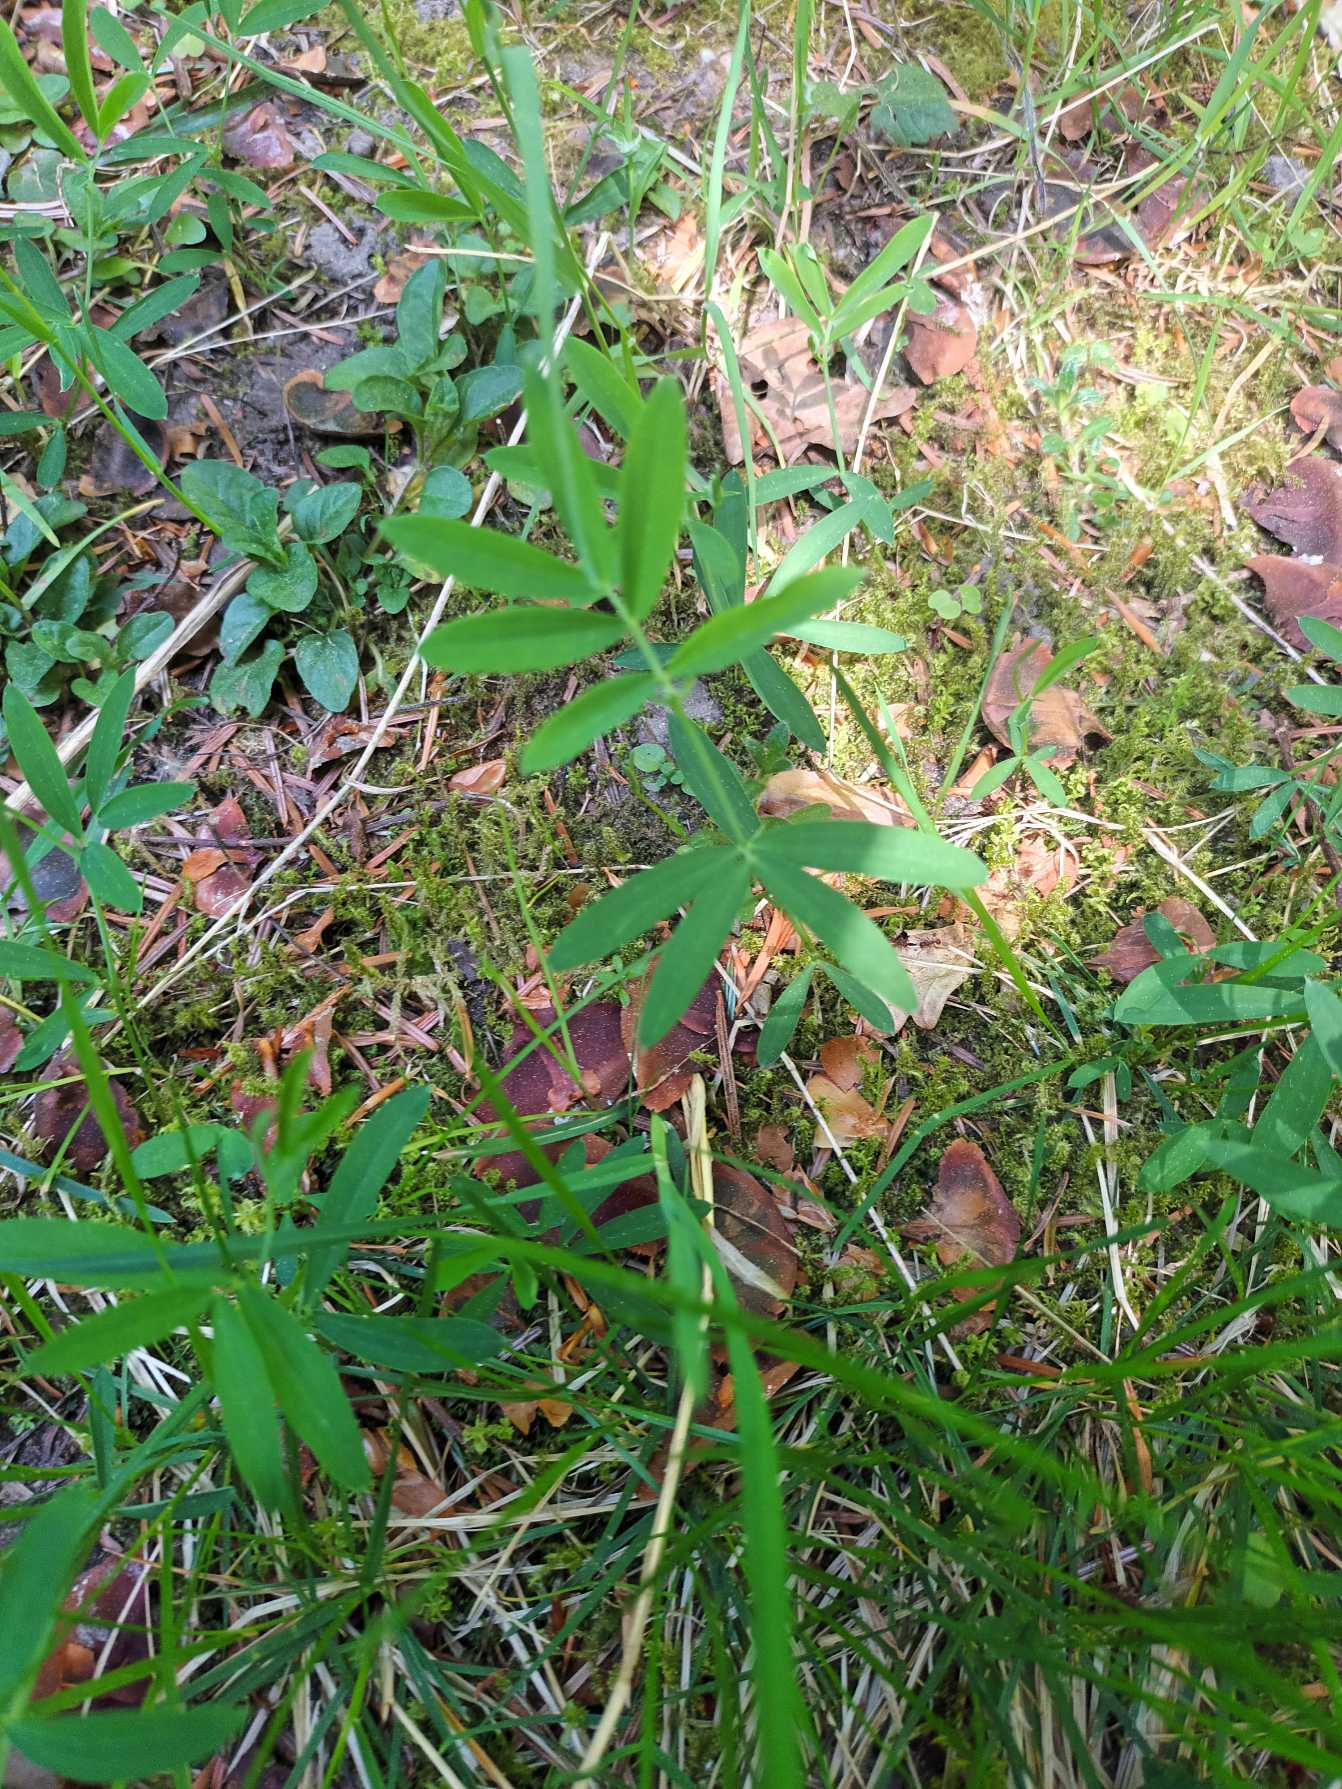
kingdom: Plantae
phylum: Tracheophyta
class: Magnoliopsida
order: Fabales
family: Fabaceae
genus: Lathyrus
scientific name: Lathyrus linifolius
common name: Krat-fladbælg
